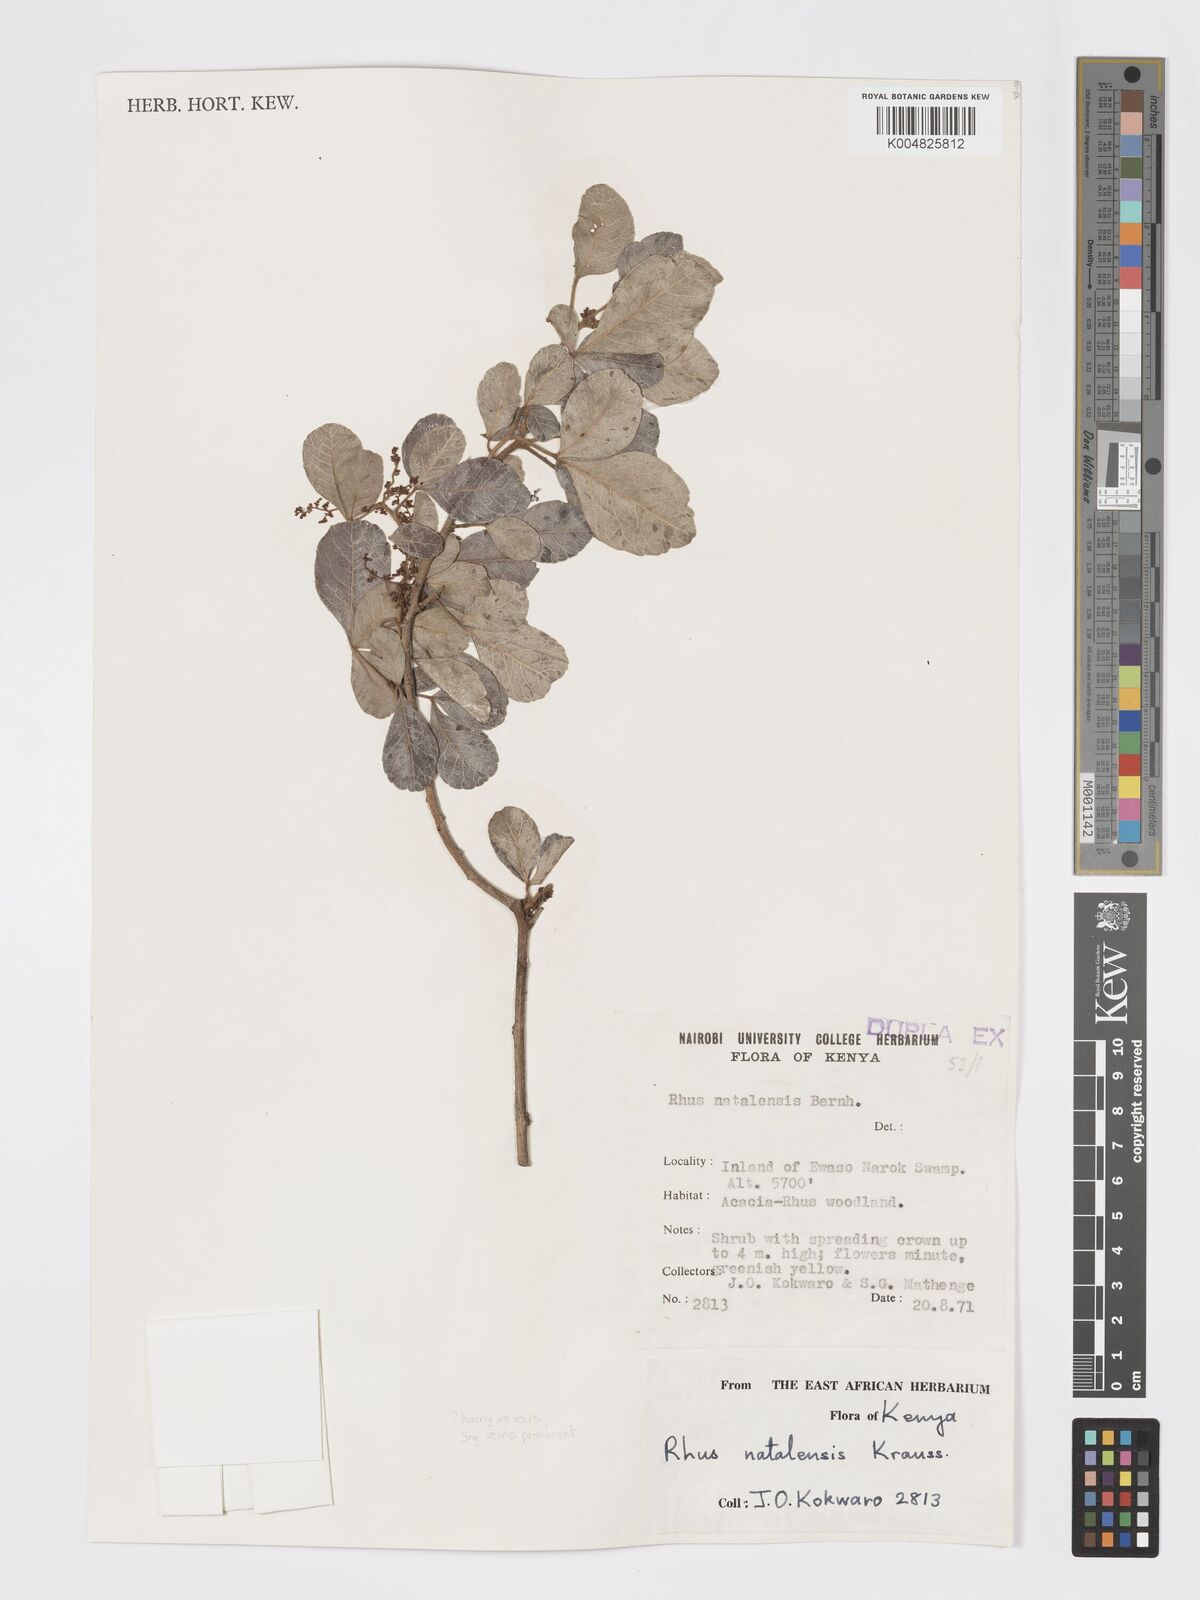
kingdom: Plantae
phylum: Tracheophyta
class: Magnoliopsida
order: Sapindales
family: Anacardiaceae
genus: Searsia
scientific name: Searsia natalensis
